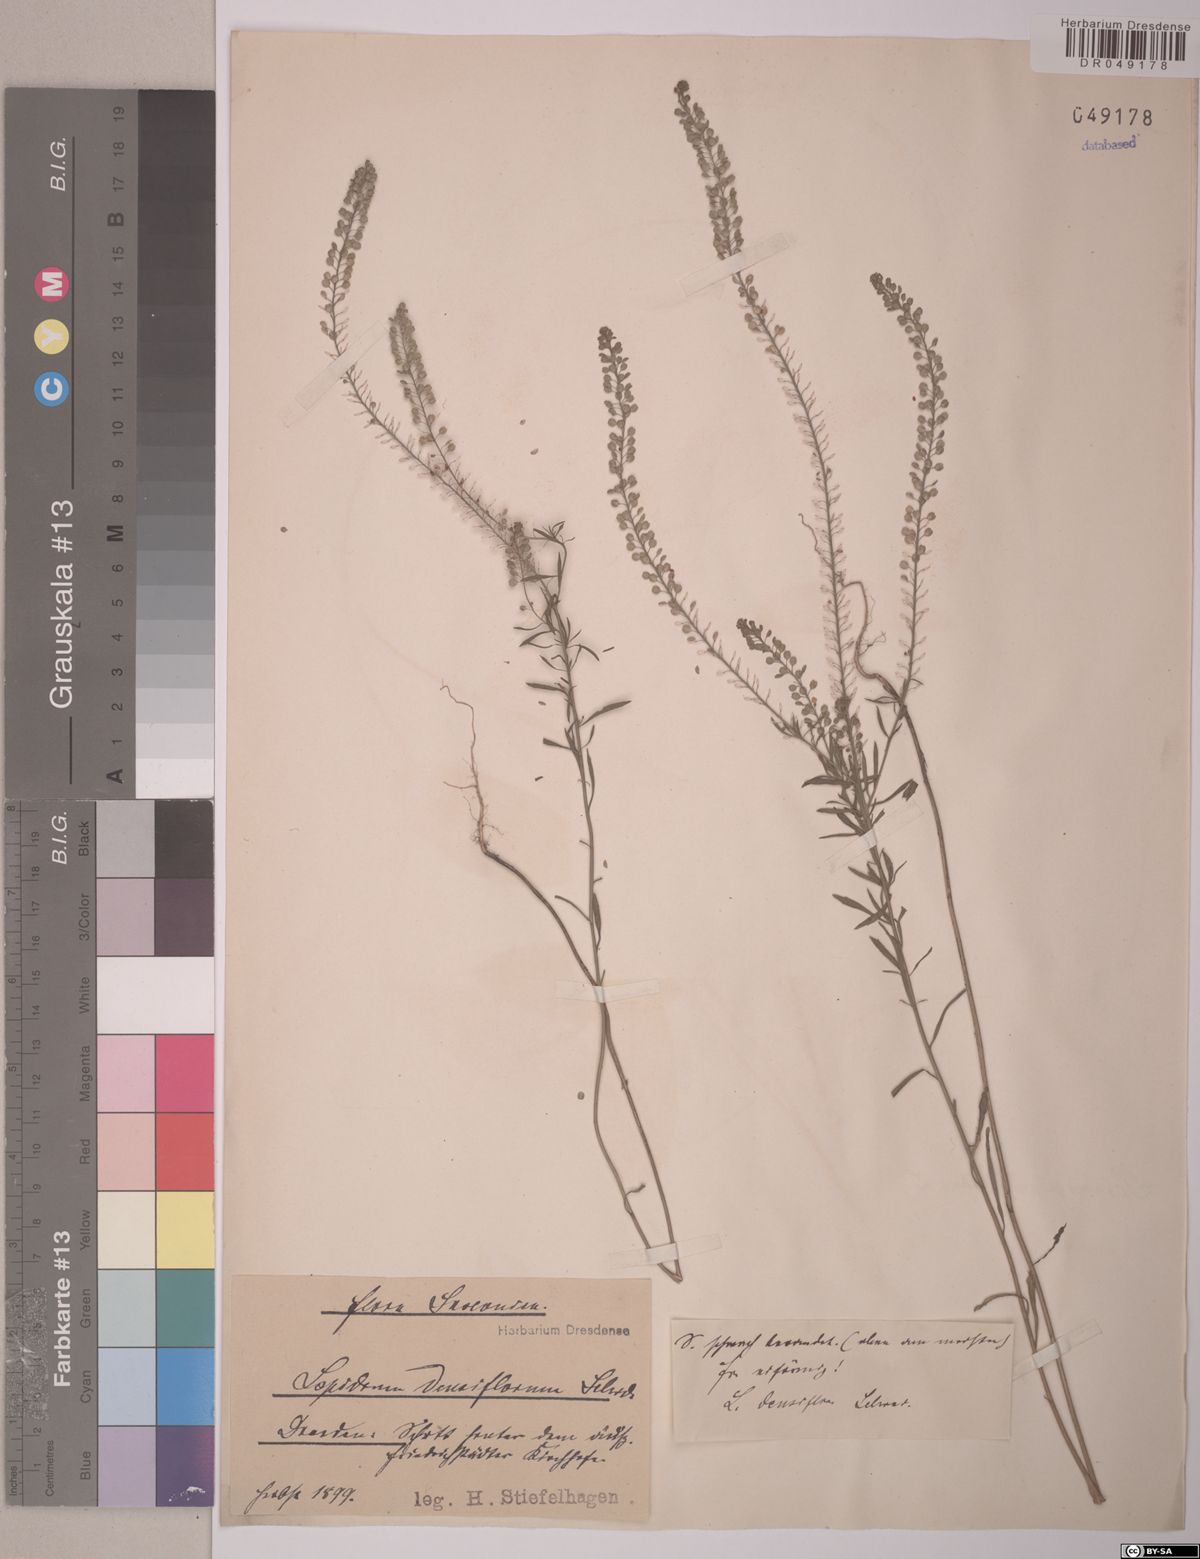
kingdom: Plantae
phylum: Tracheophyta
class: Magnoliopsida
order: Brassicales
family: Brassicaceae
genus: Lepidium
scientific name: Lepidium densiflorum
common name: Miner's pepperwort
